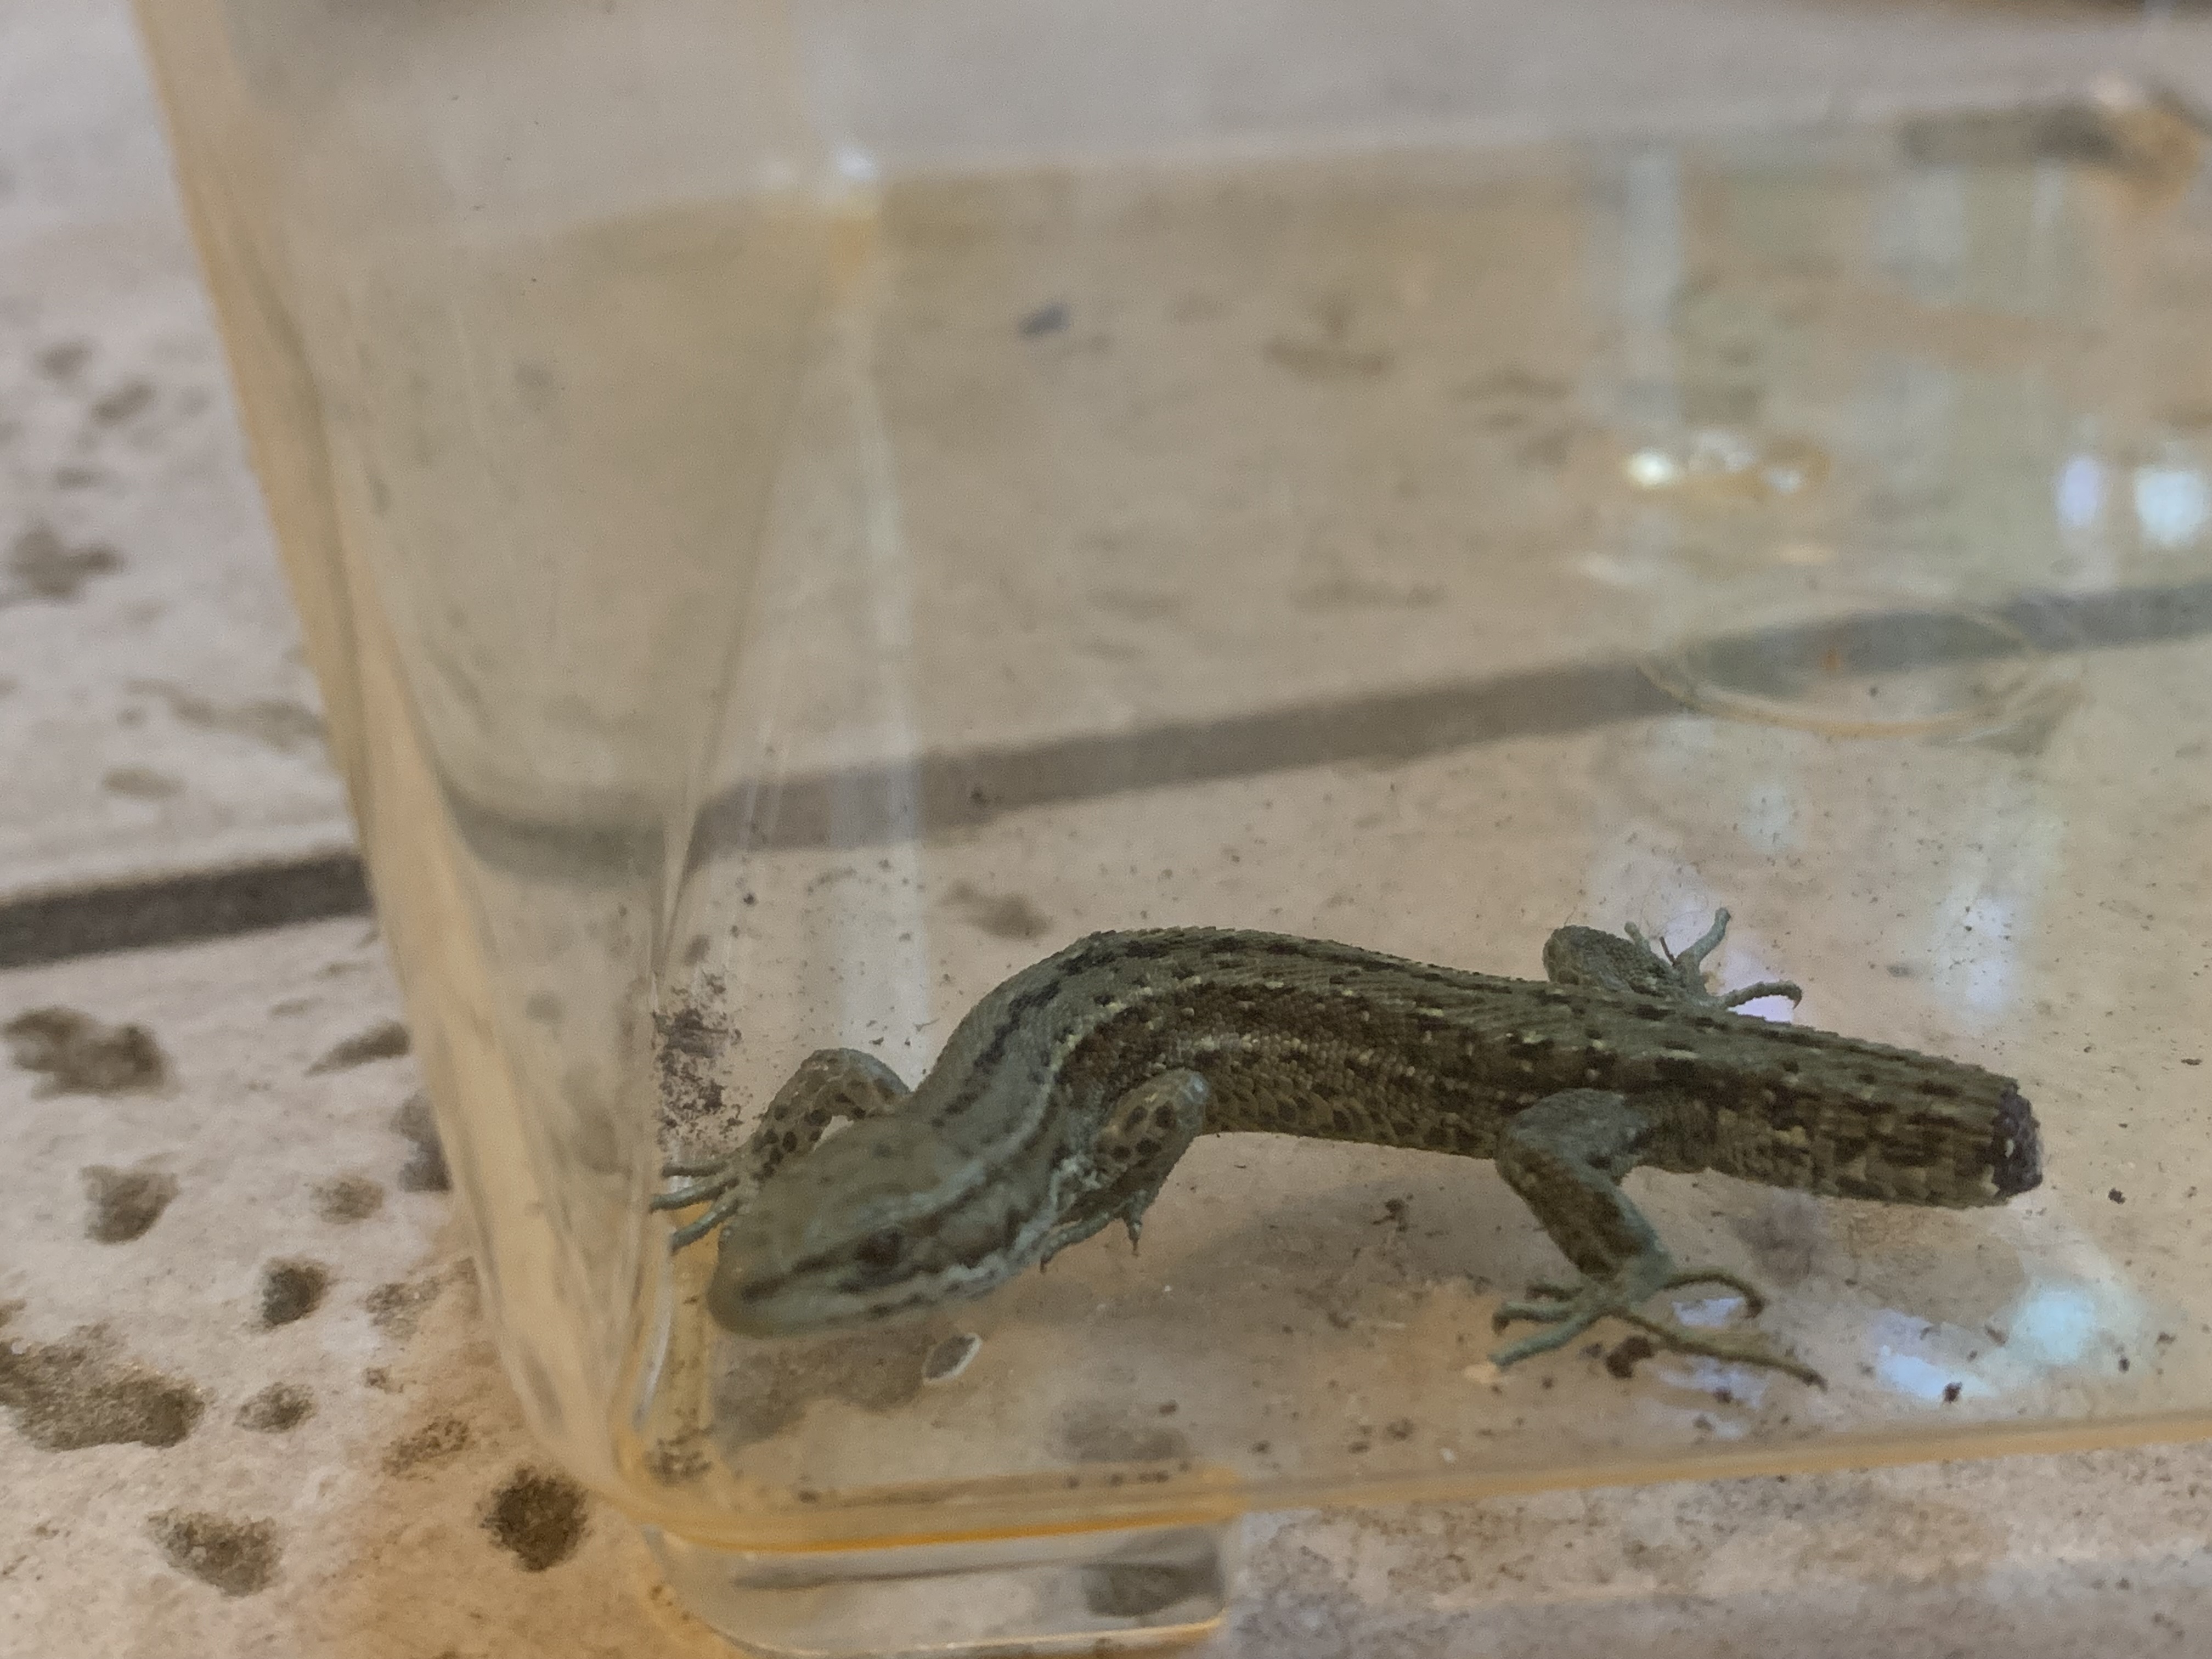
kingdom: Animalia
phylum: Chordata
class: Squamata
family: Lacertidae
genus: Zootoca
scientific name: Zootoca vivipara
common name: Skovfirben
